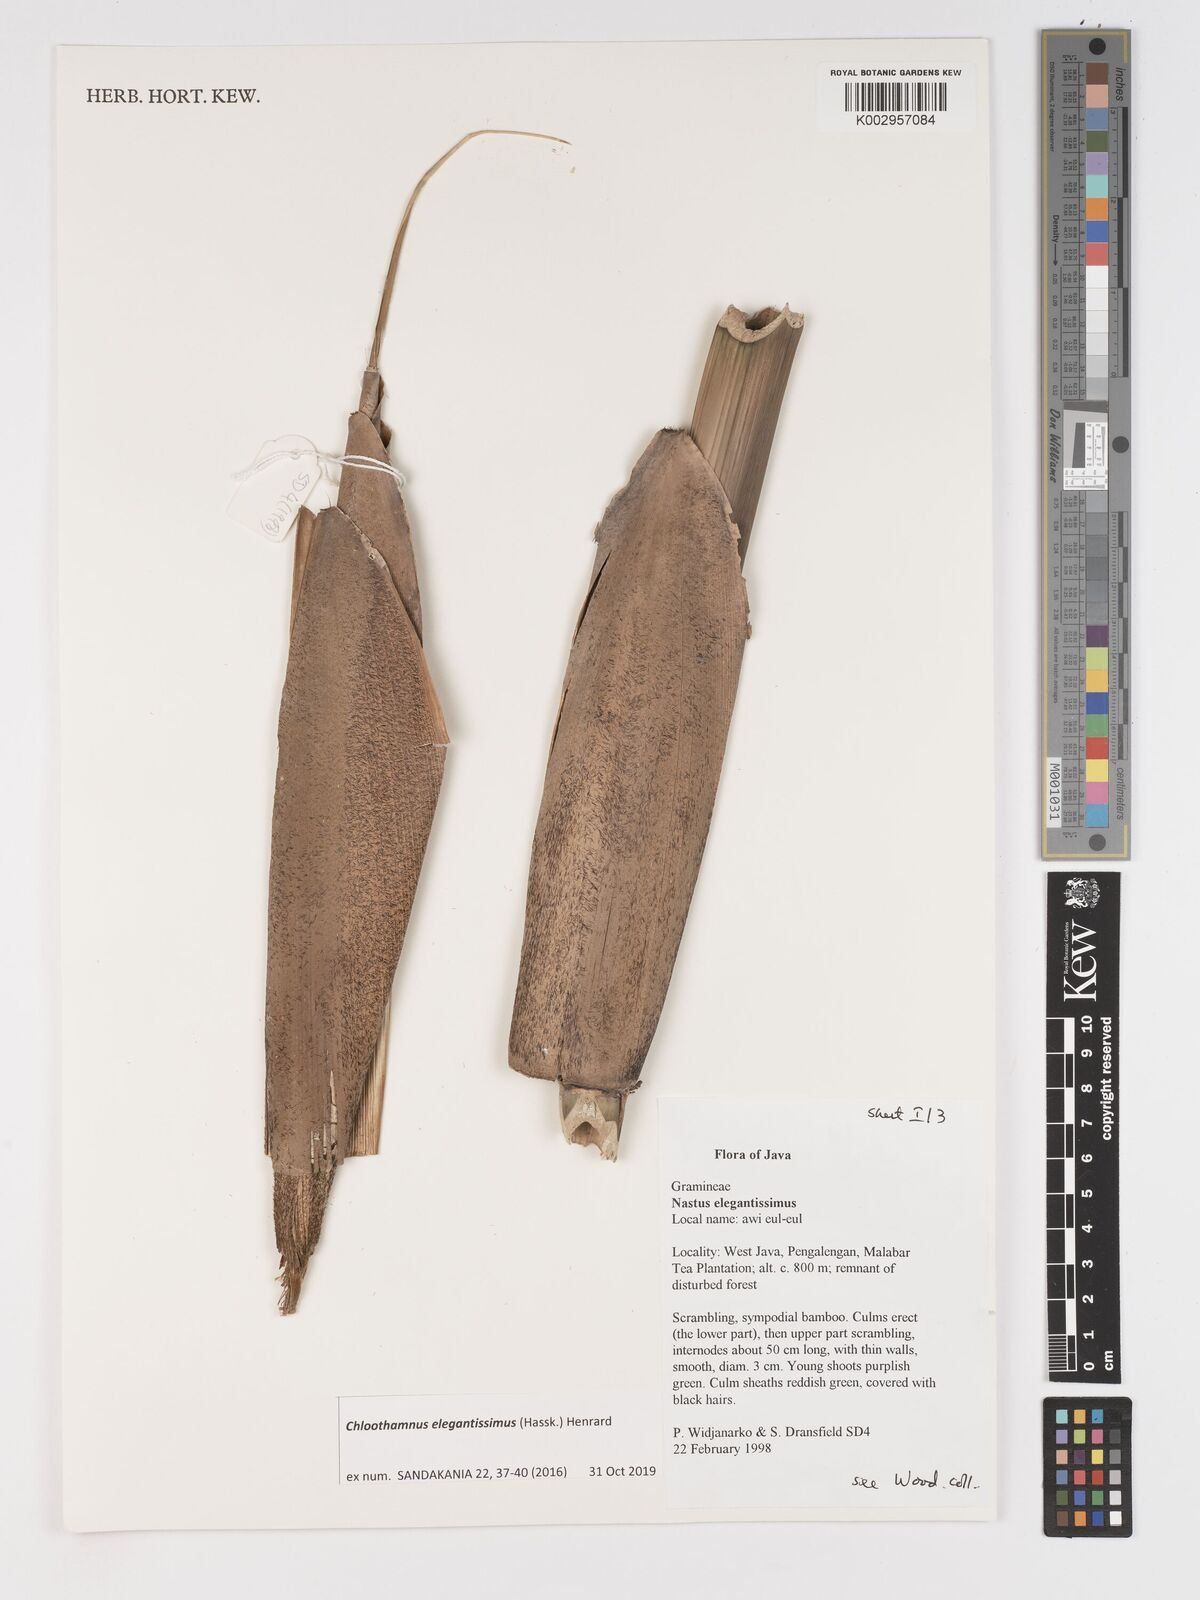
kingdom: Plantae
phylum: Tracheophyta
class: Liliopsida
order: Poales
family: Poaceae
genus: Chloothamnus
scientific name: Chloothamnus elegantissimus
